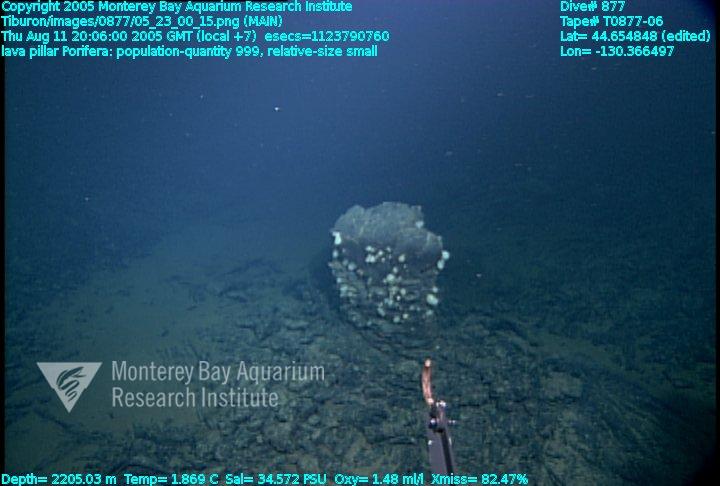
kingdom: Animalia
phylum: Porifera
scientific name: Porifera
